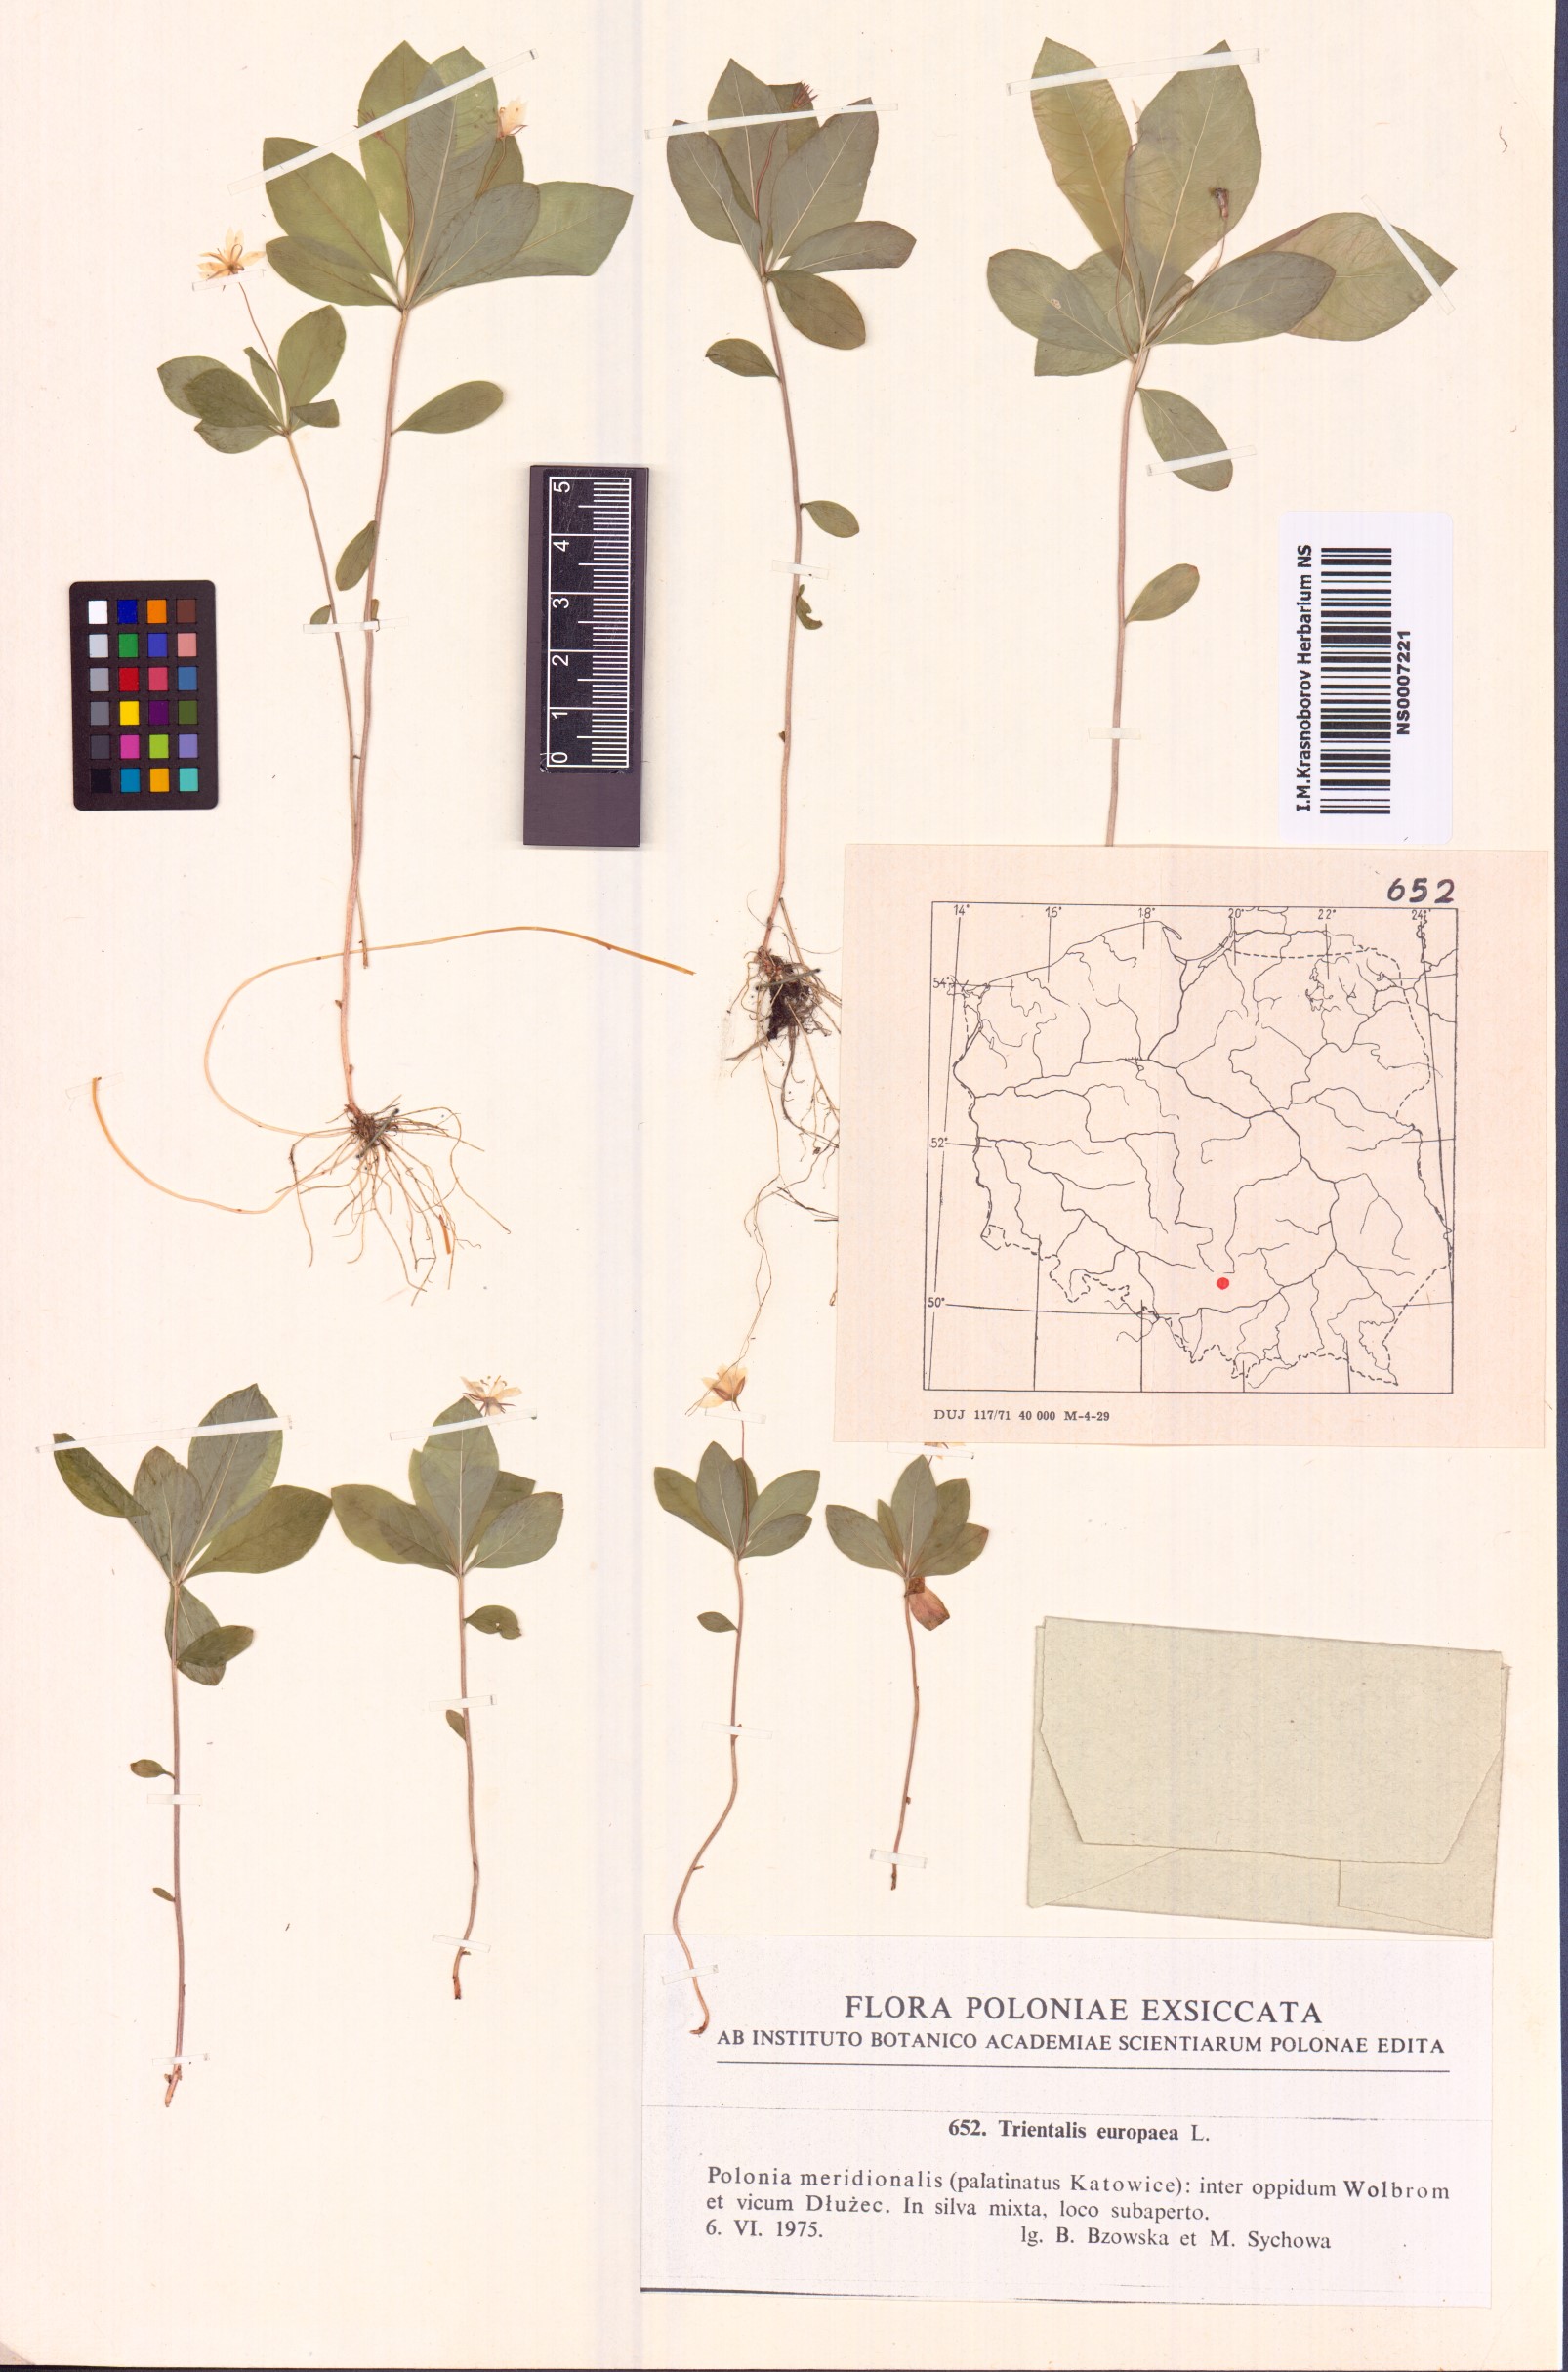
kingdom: Plantae
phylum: Tracheophyta
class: Magnoliopsida
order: Ericales
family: Primulaceae
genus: Lysimachia
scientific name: Lysimachia europaea
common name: Arctic starflower
